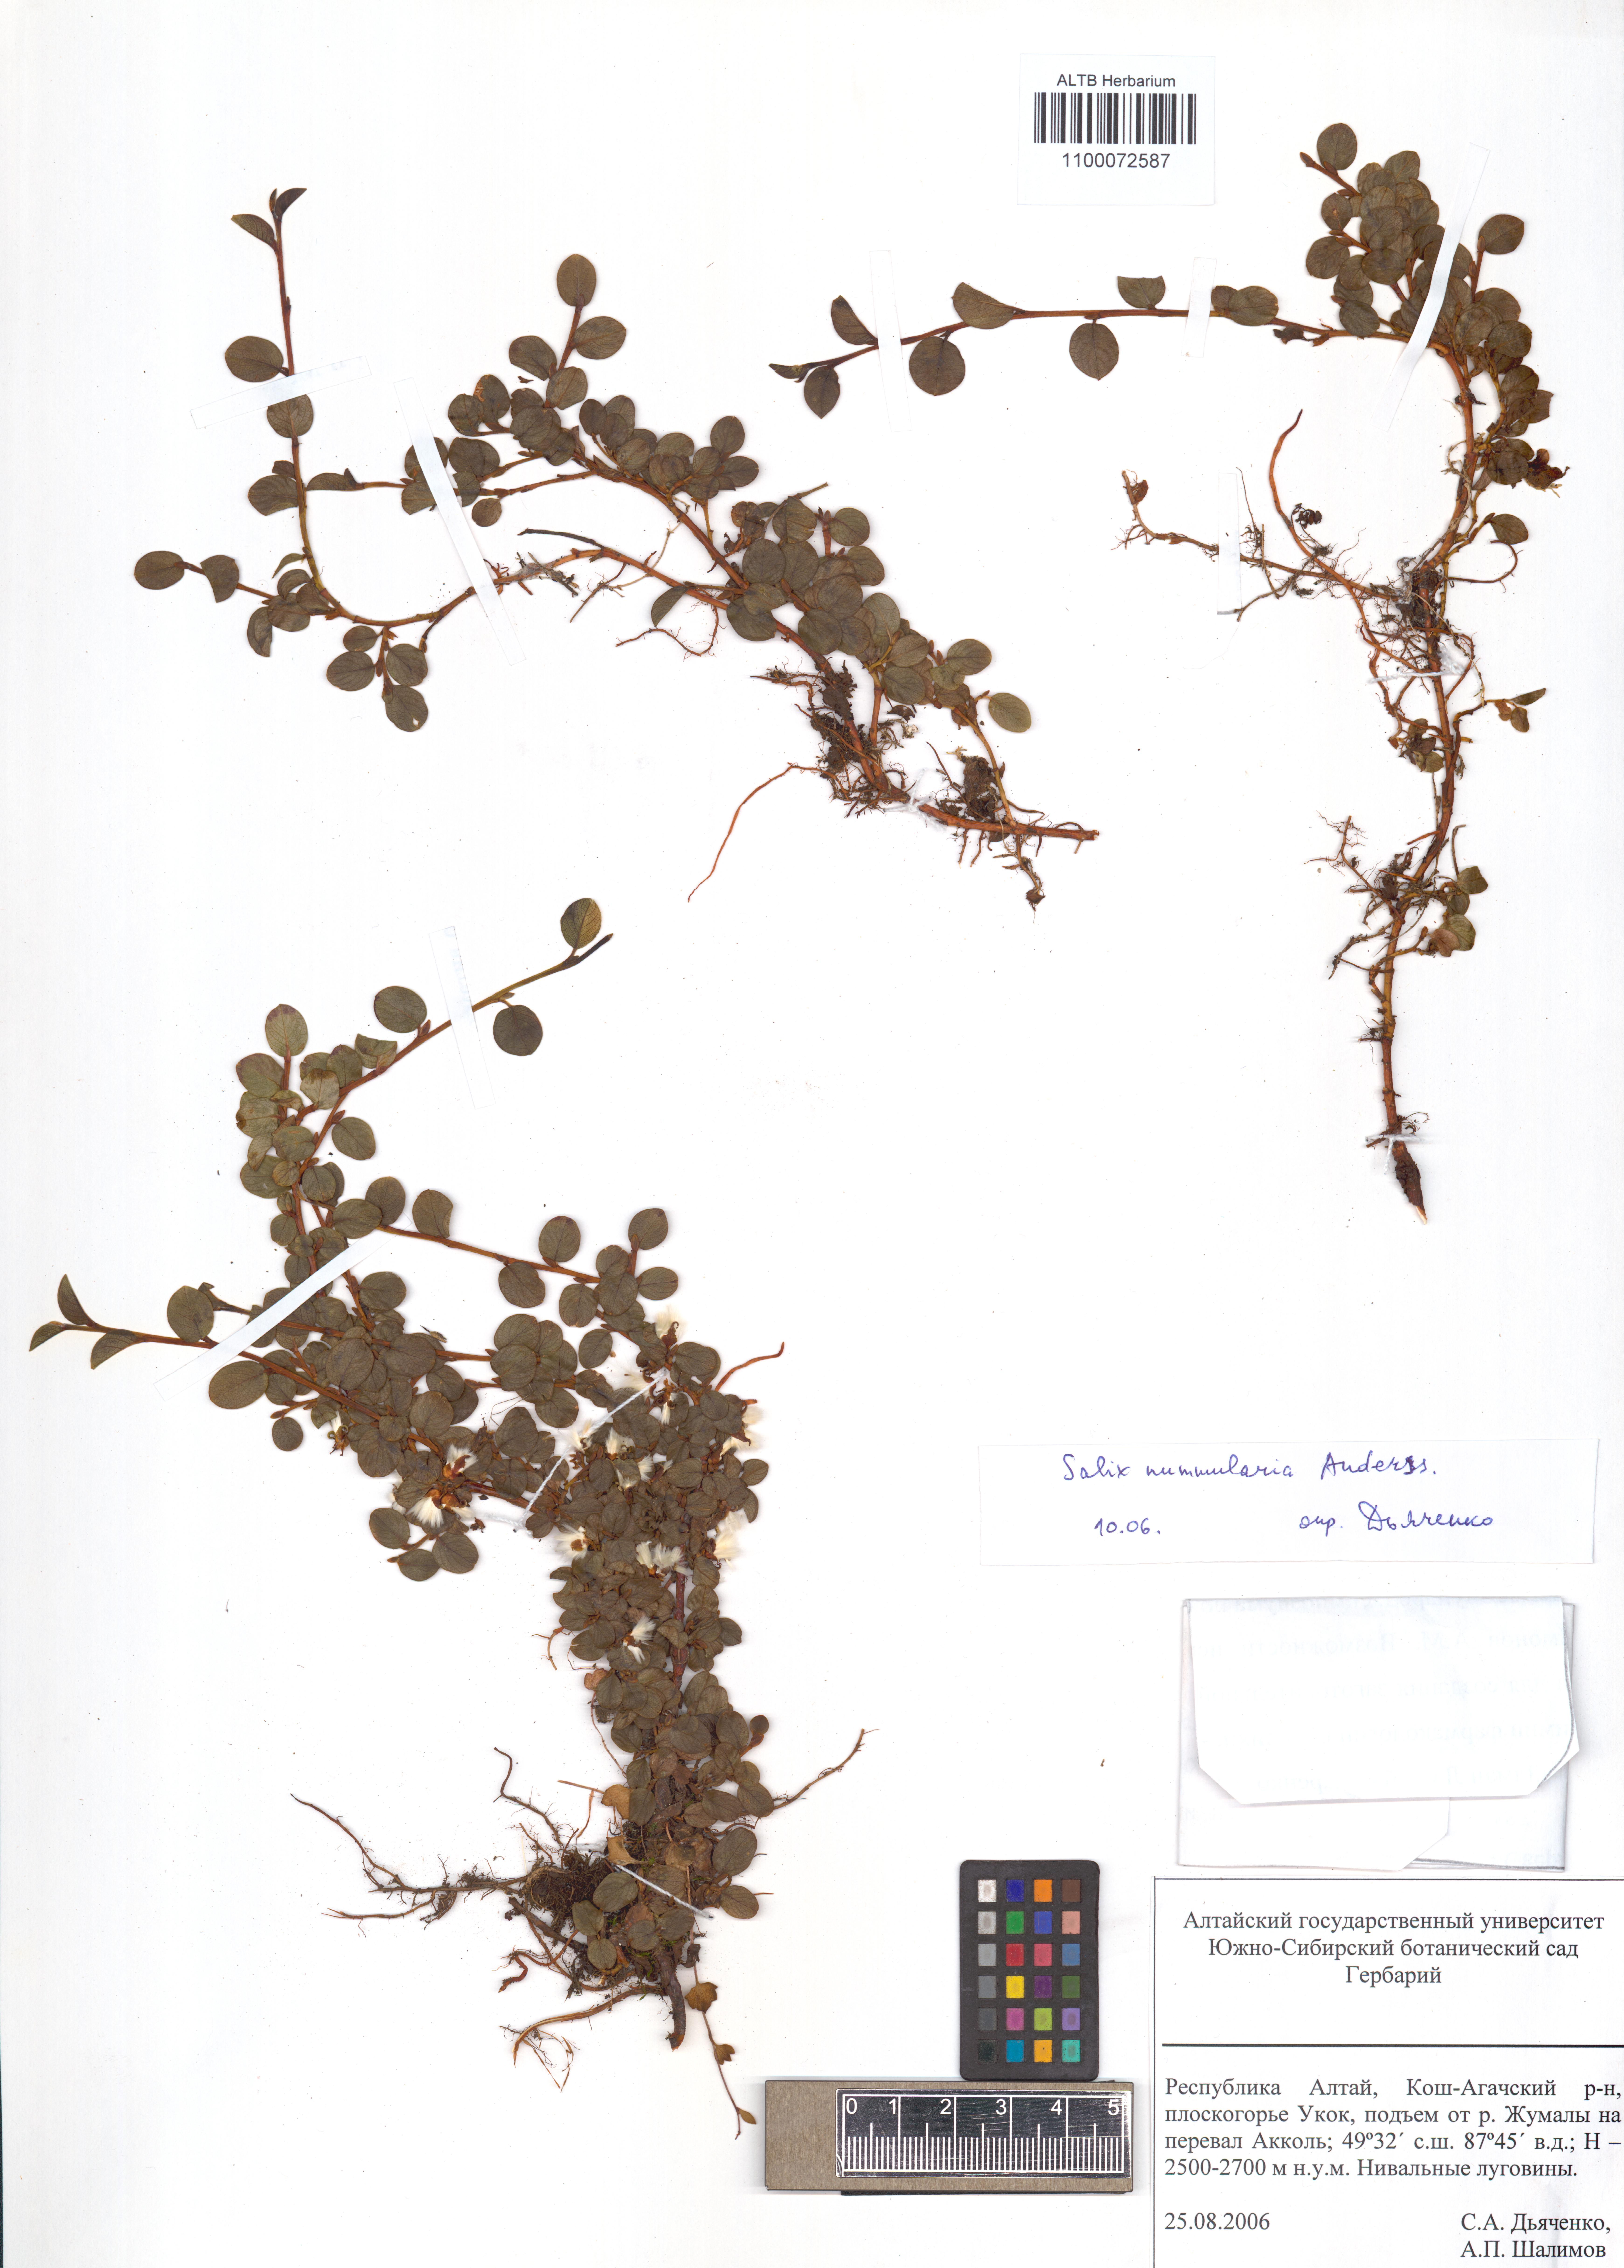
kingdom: Plantae
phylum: Tracheophyta
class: Magnoliopsida
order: Malpighiales
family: Salicaceae
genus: Salix
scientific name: Salix nummularia
